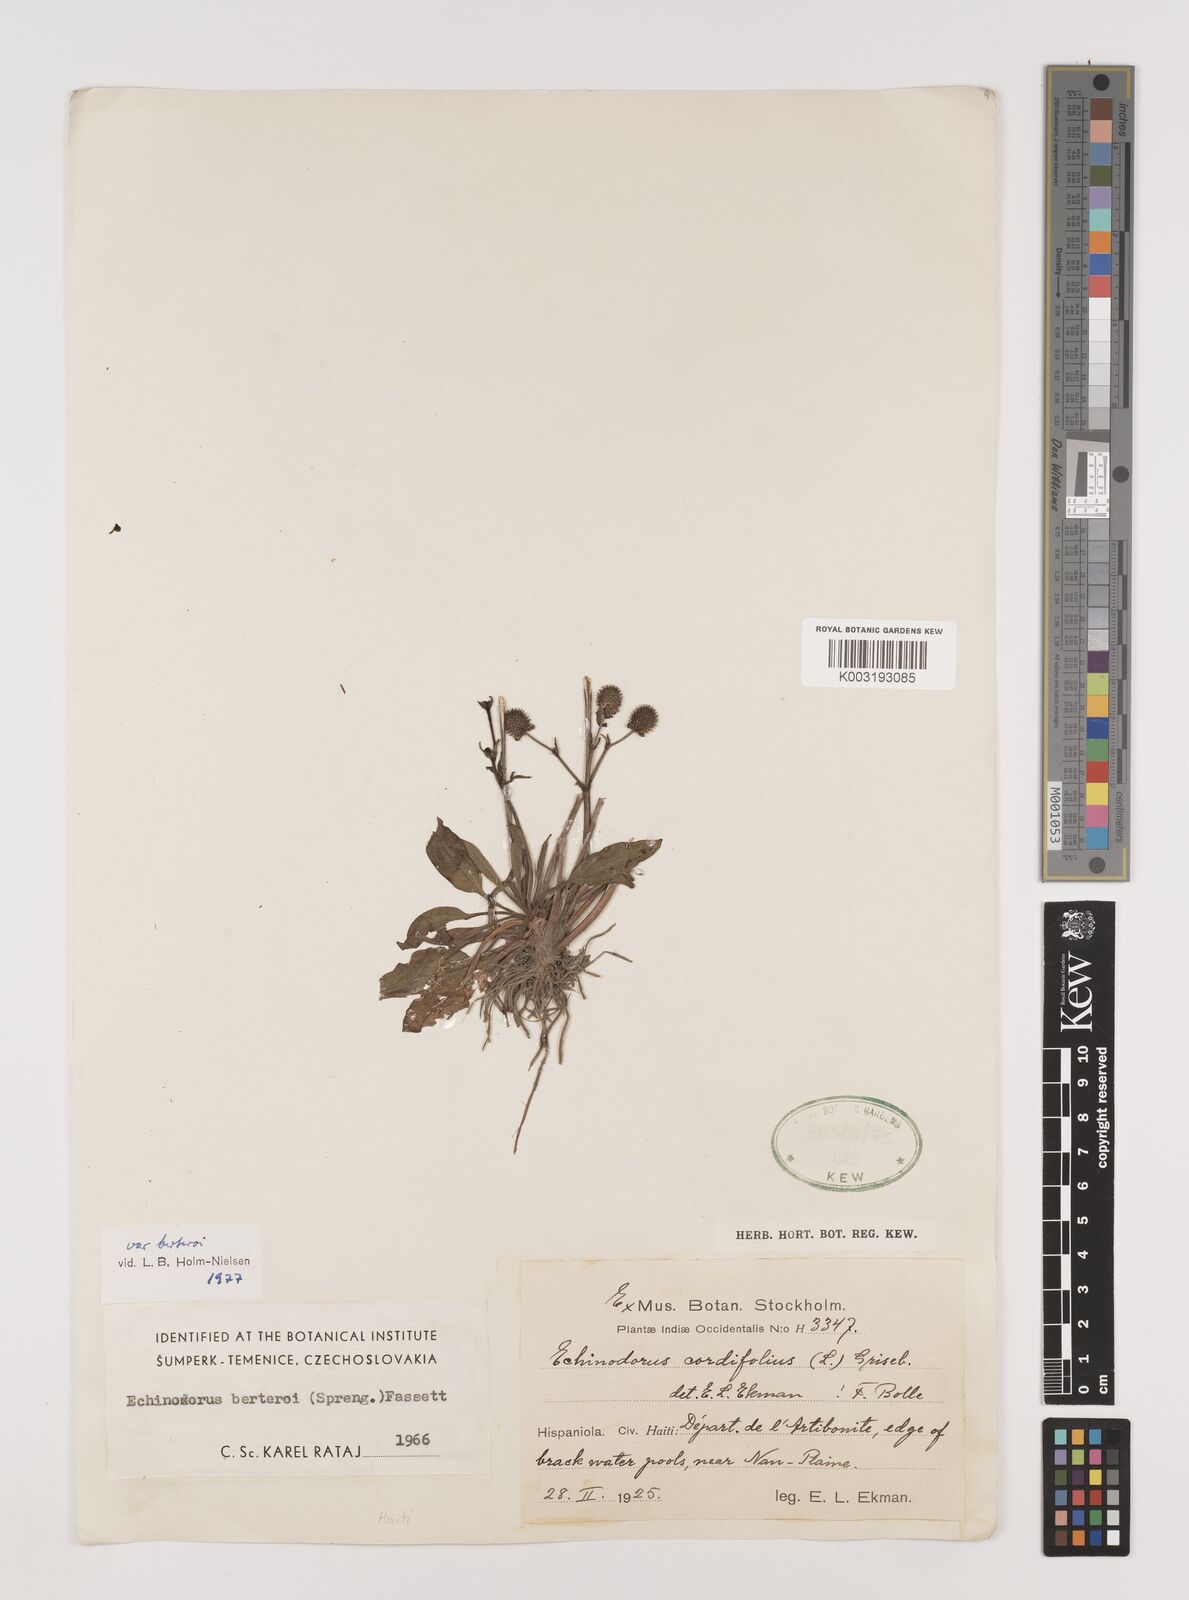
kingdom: Plantae
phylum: Tracheophyta
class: Liliopsida
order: Alismatales
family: Alismataceae
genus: Echinodorus
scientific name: Echinodorus berteroi
